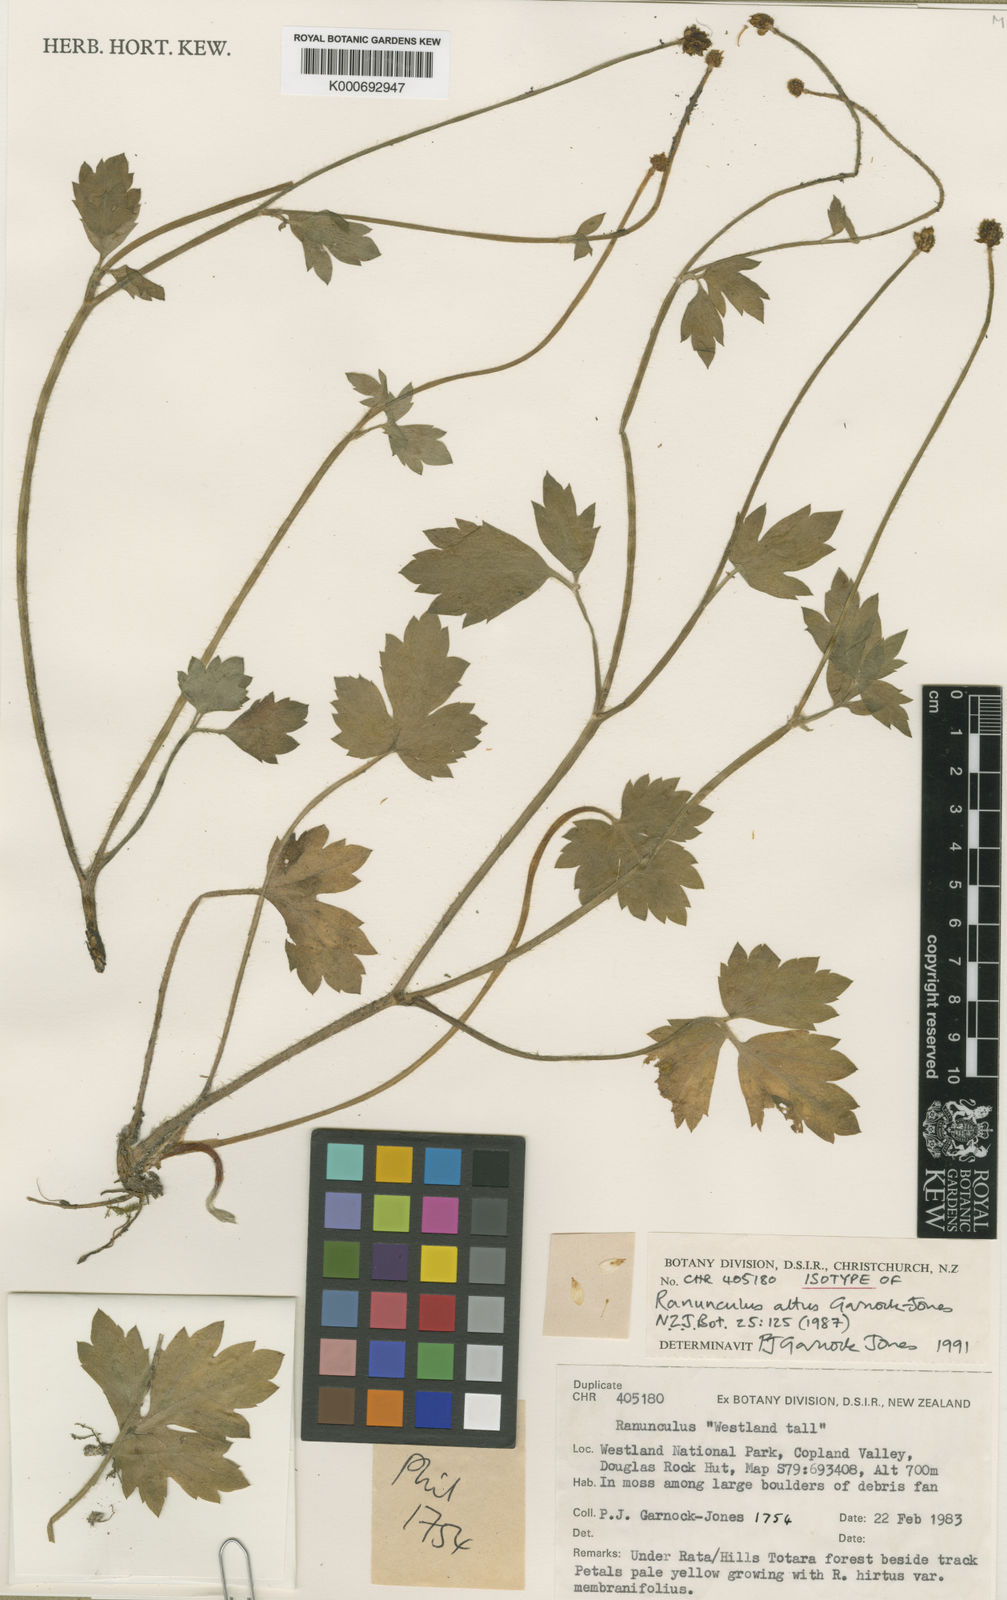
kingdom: Plantae
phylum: Tracheophyta
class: Magnoliopsida
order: Ranunculales
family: Ranunculaceae
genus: Ranunculus
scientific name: Ranunculus septempartitus
